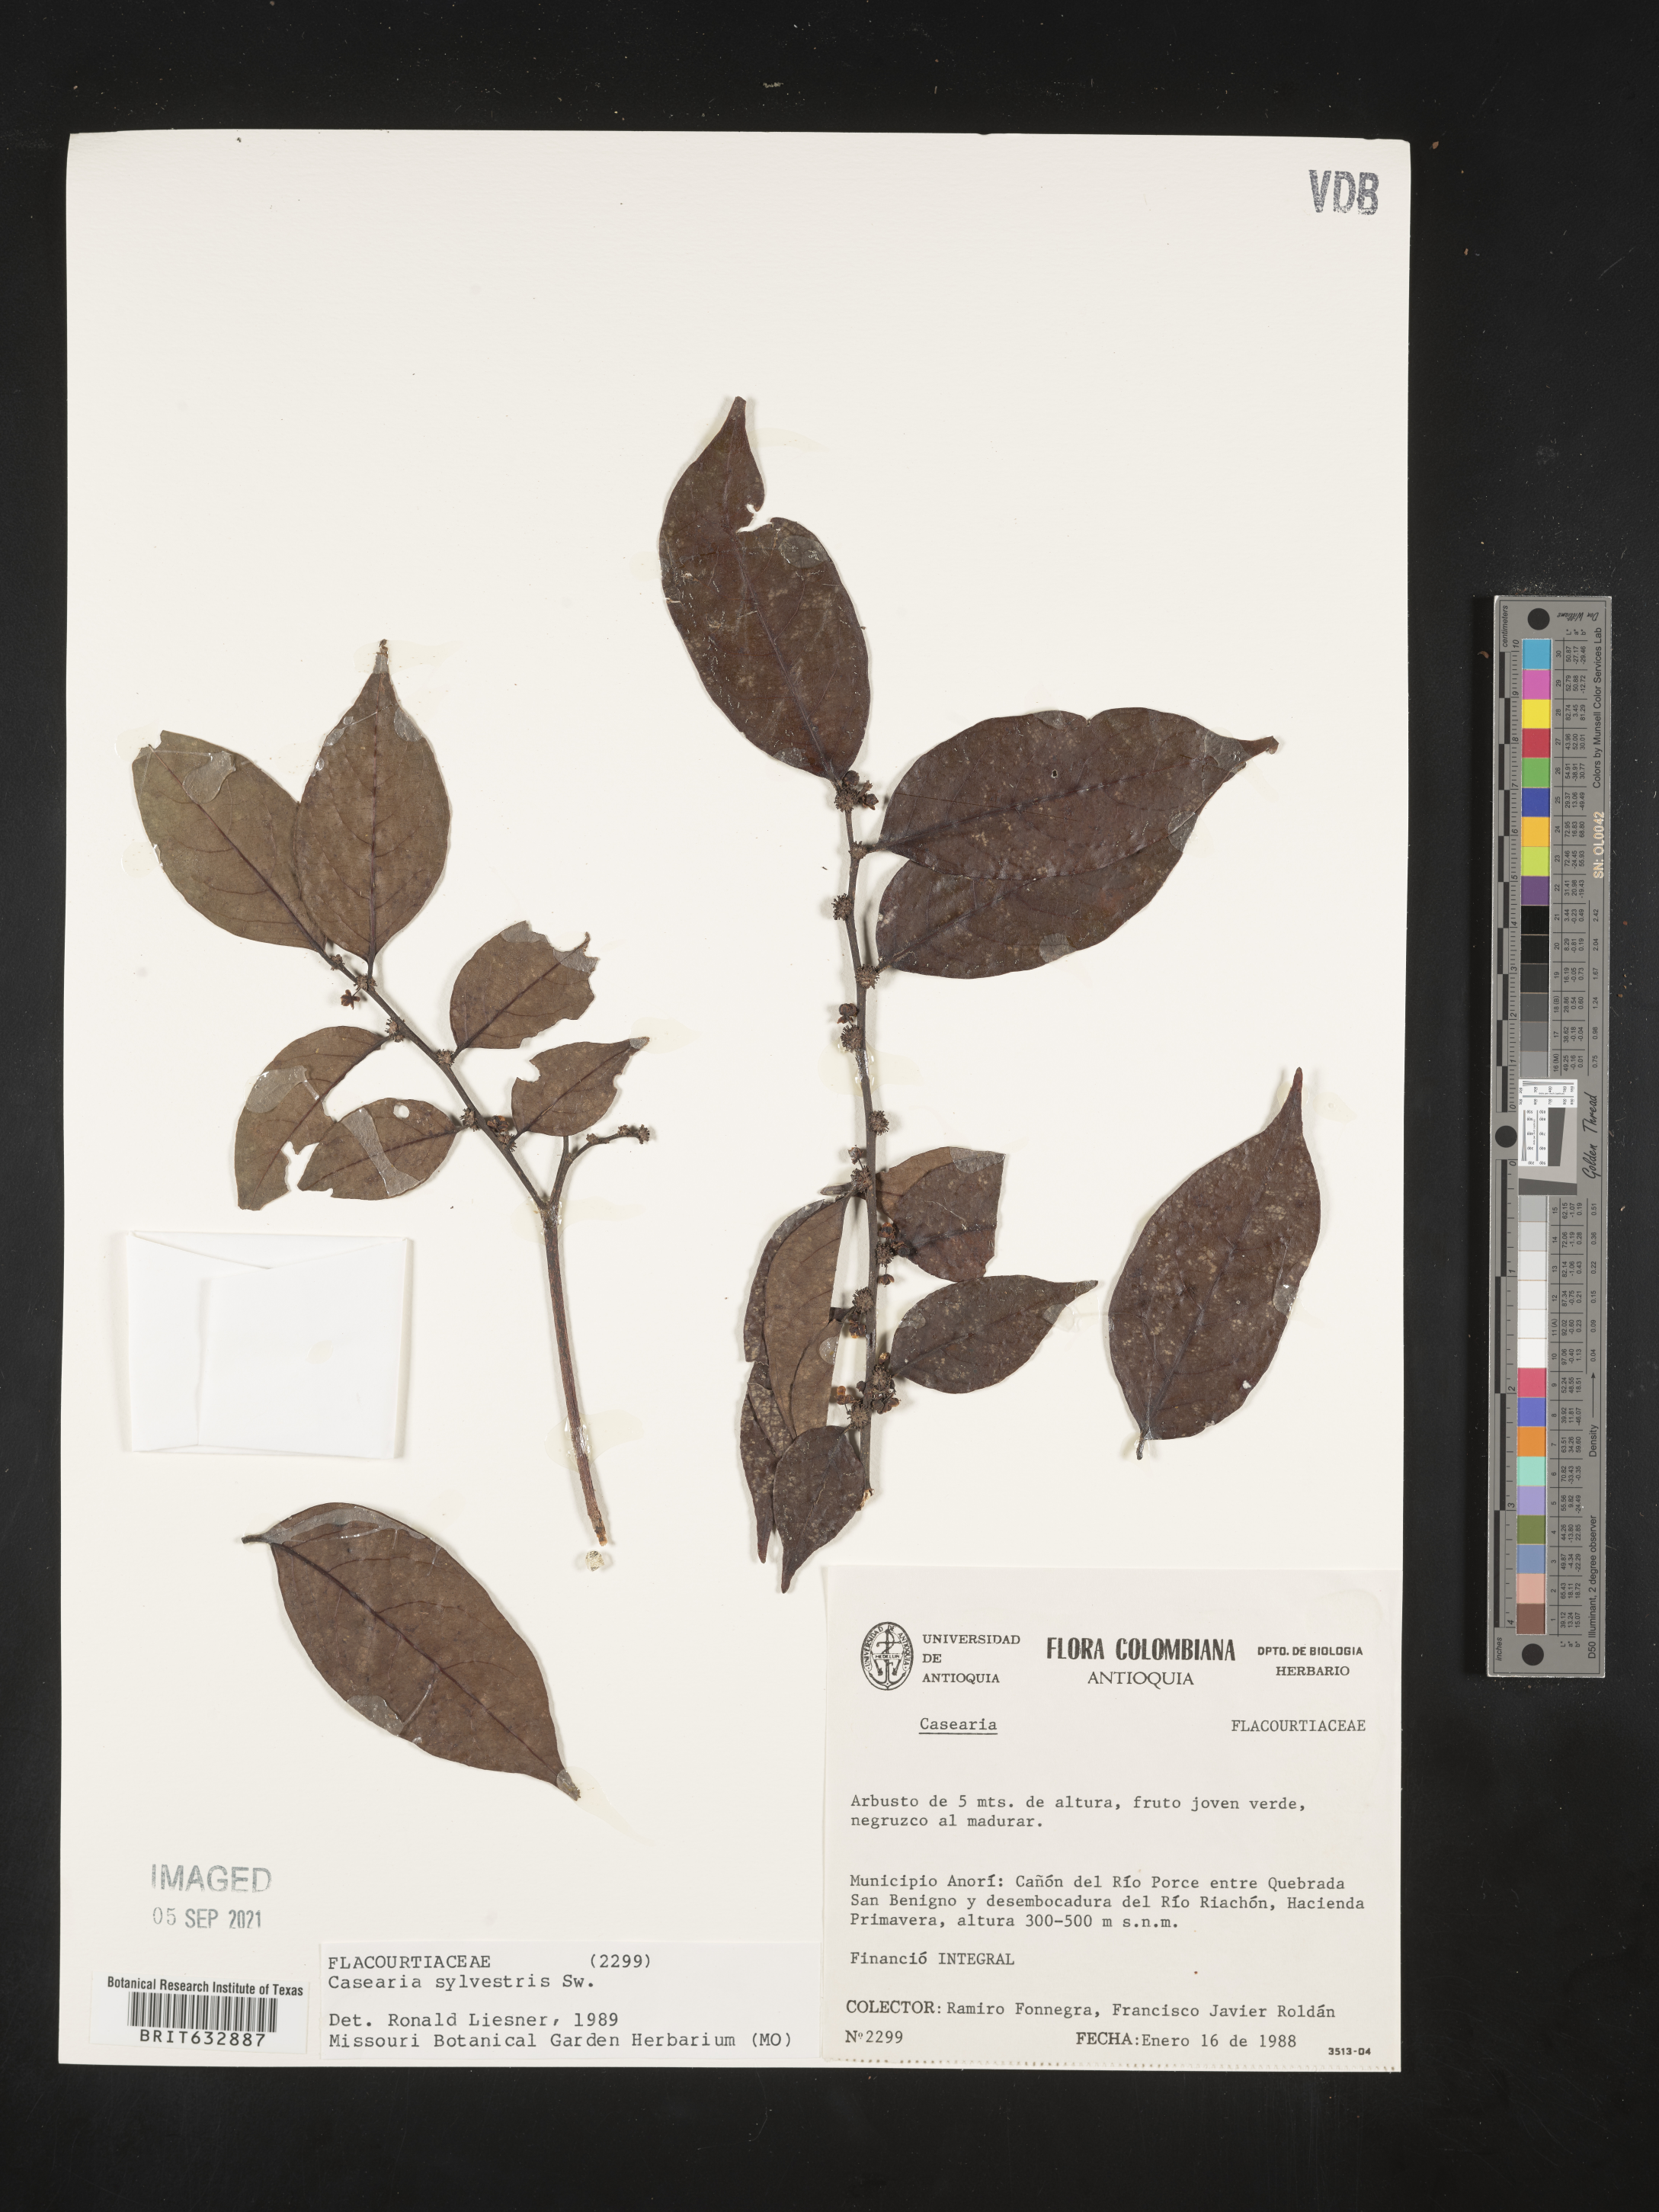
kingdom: Plantae
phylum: Tracheophyta
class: Magnoliopsida
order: Malpighiales
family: Salicaceae
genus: Casearia
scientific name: Casearia
